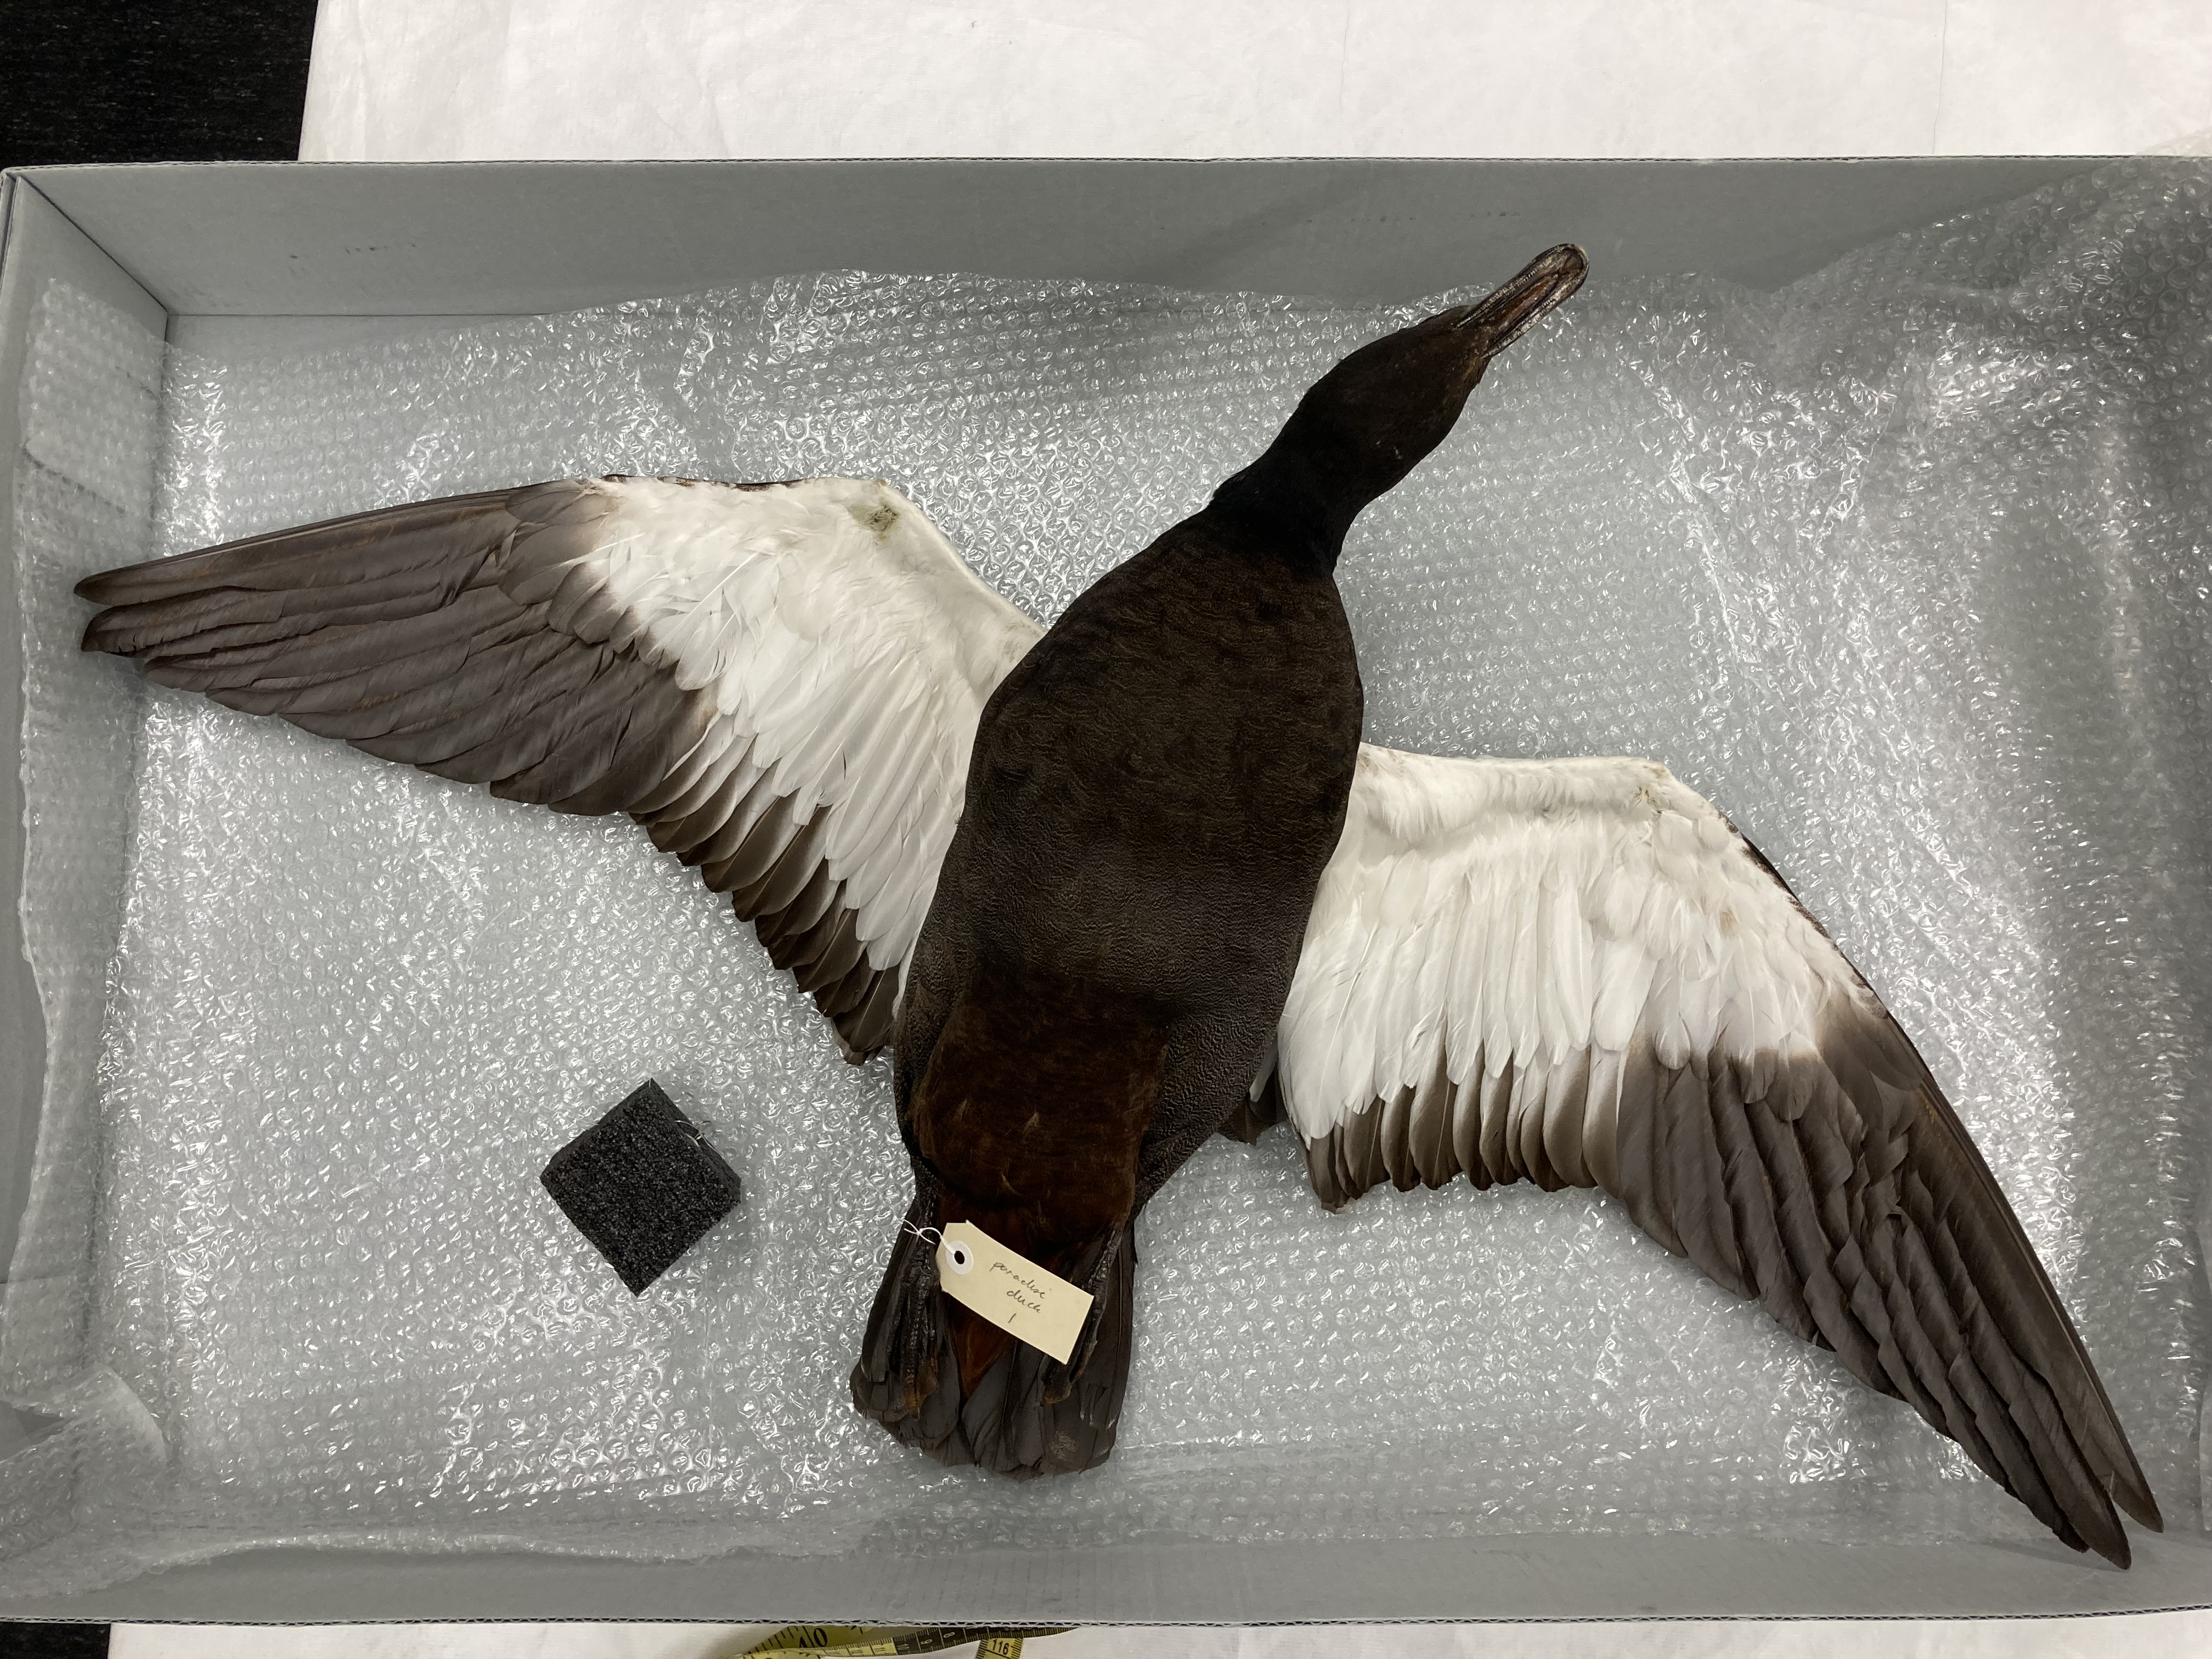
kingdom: Animalia
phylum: Chordata
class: Aves
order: Anseriformes
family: Anatidae
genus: Tadorna
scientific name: Tadorna variegata
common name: Paradise shelduck
